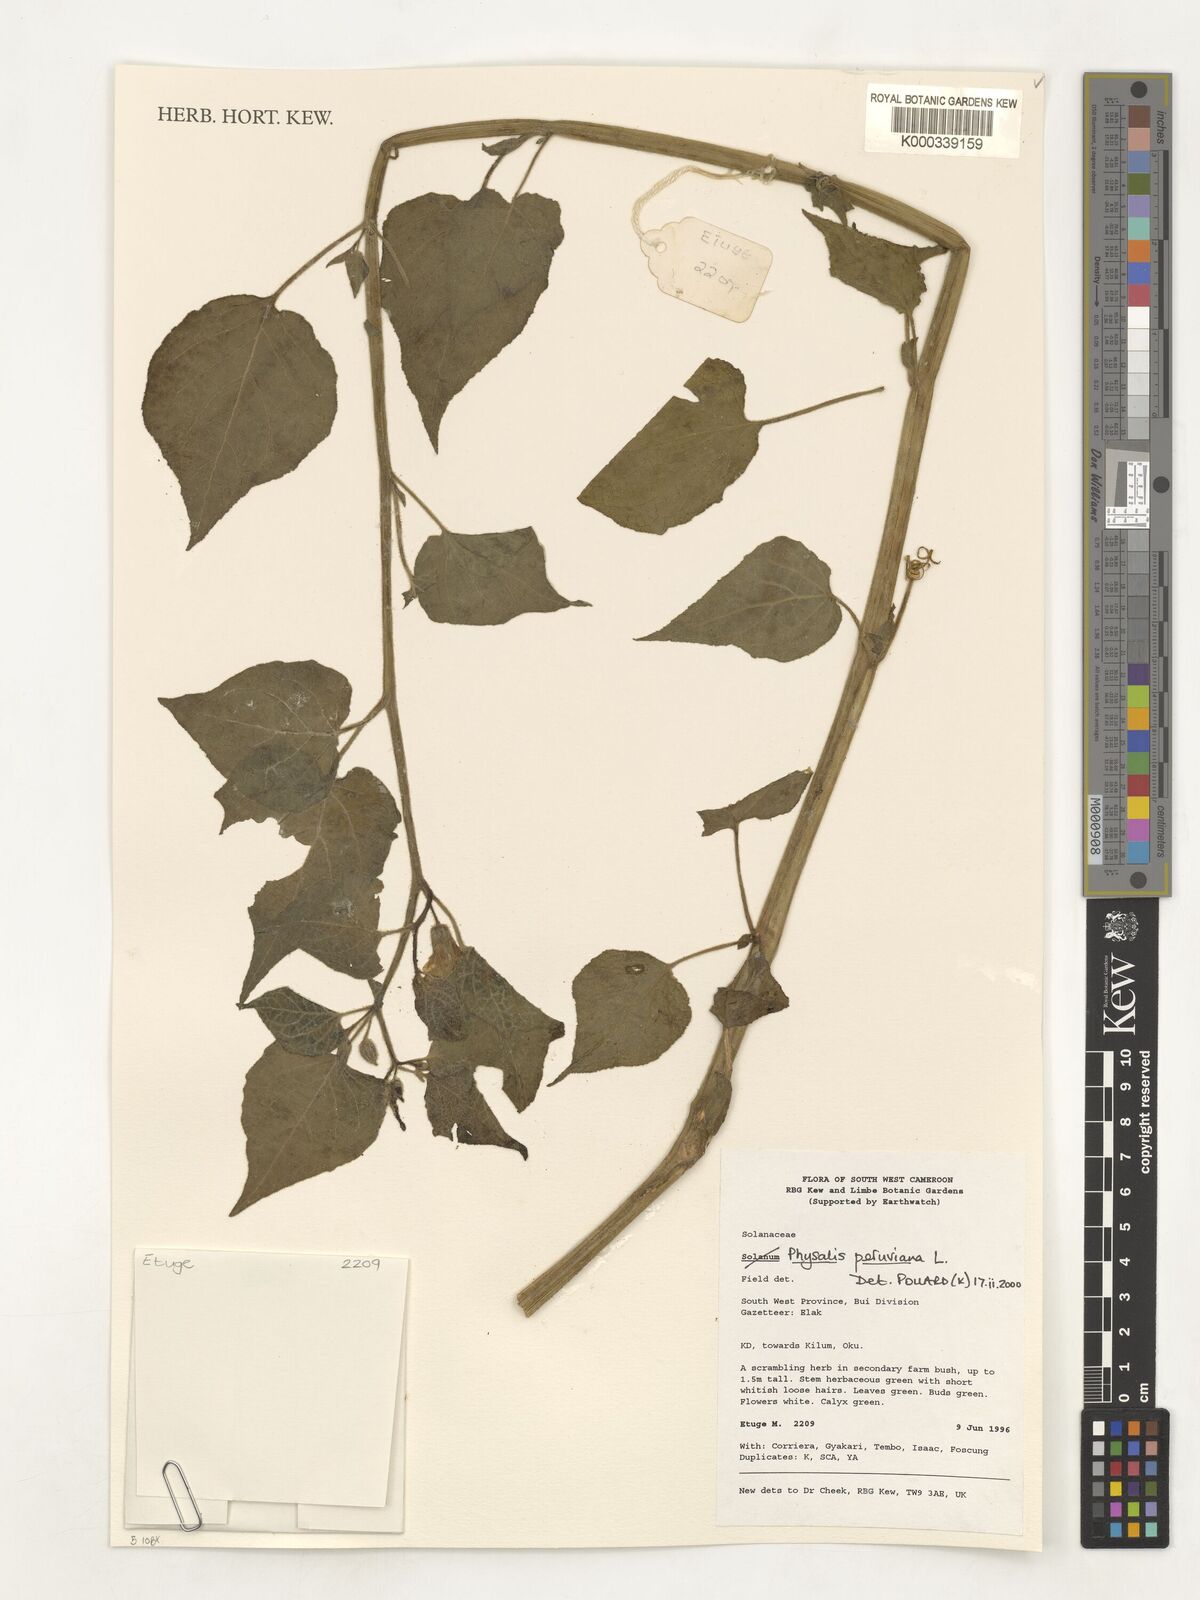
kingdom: Plantae
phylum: Tracheophyta
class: Magnoliopsida
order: Solanales
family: Solanaceae
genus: Physalis
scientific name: Physalis peruviana
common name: Cape-gooseberry
